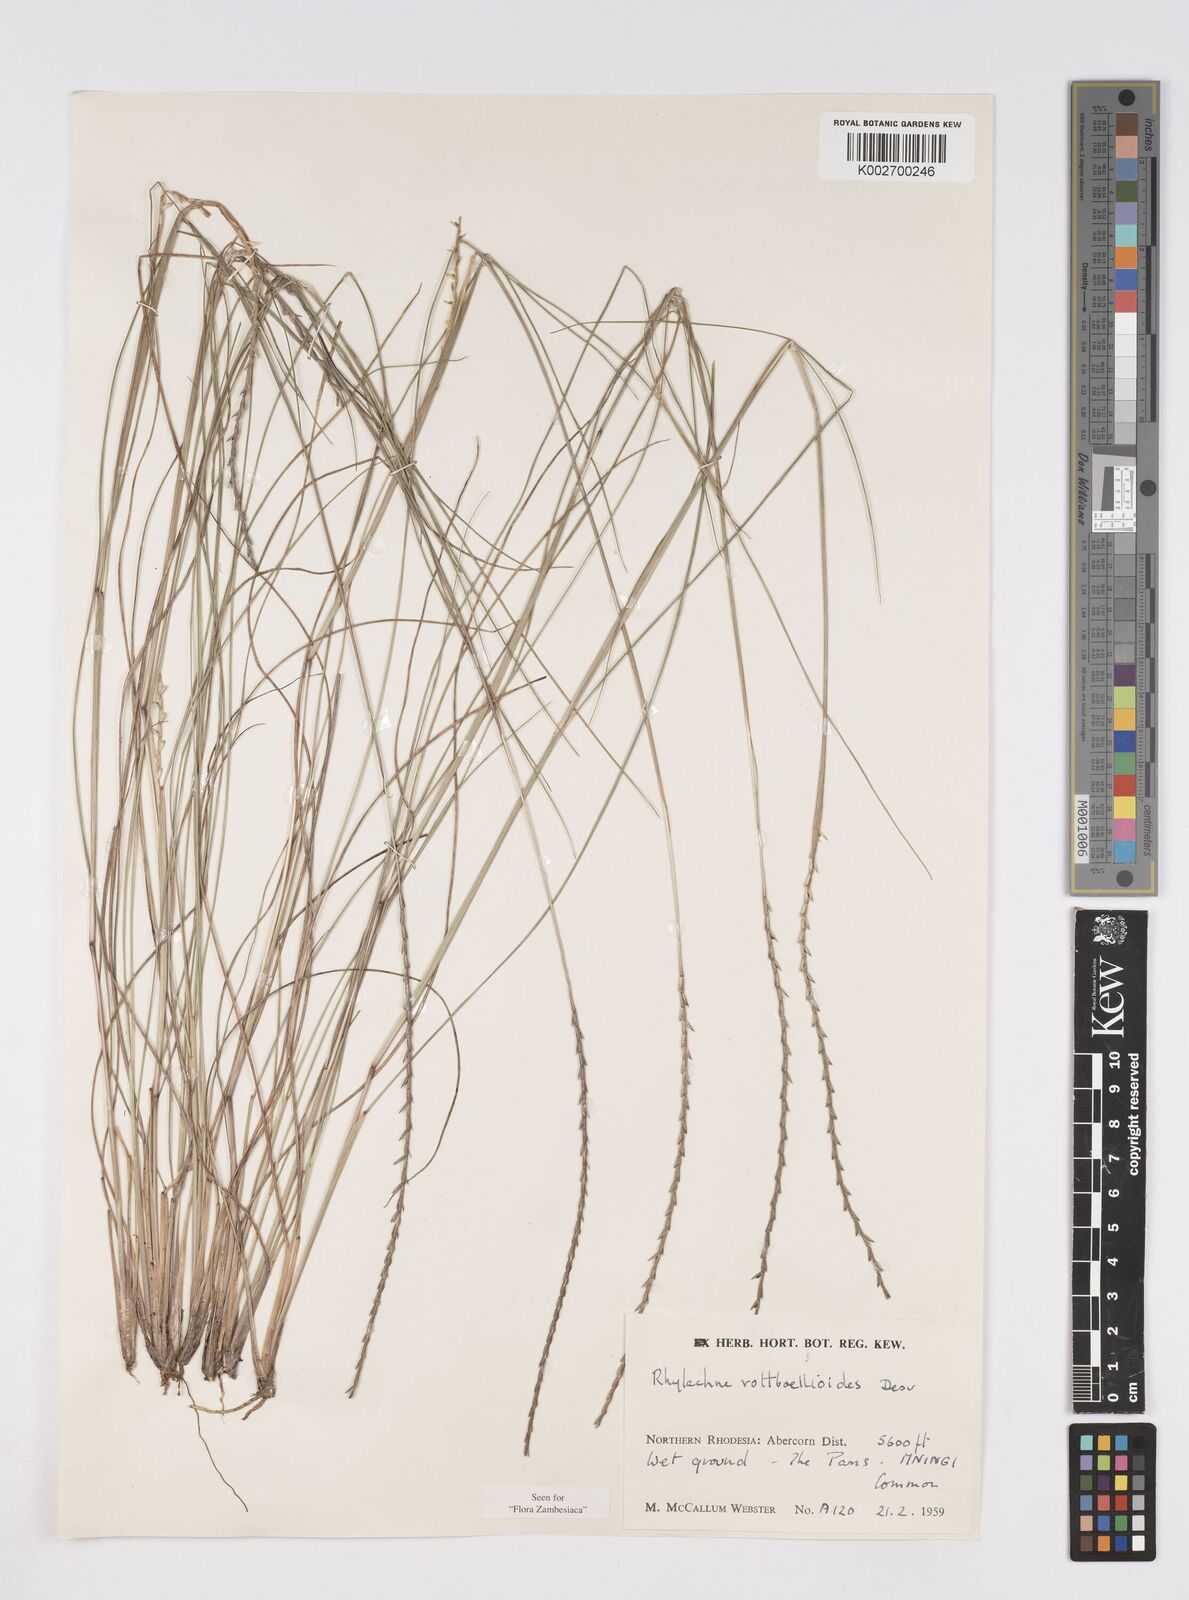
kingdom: Plantae
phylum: Tracheophyta
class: Liliopsida
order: Poales
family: Poaceae
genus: Rhytachne
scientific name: Rhytachne rottboellioides
